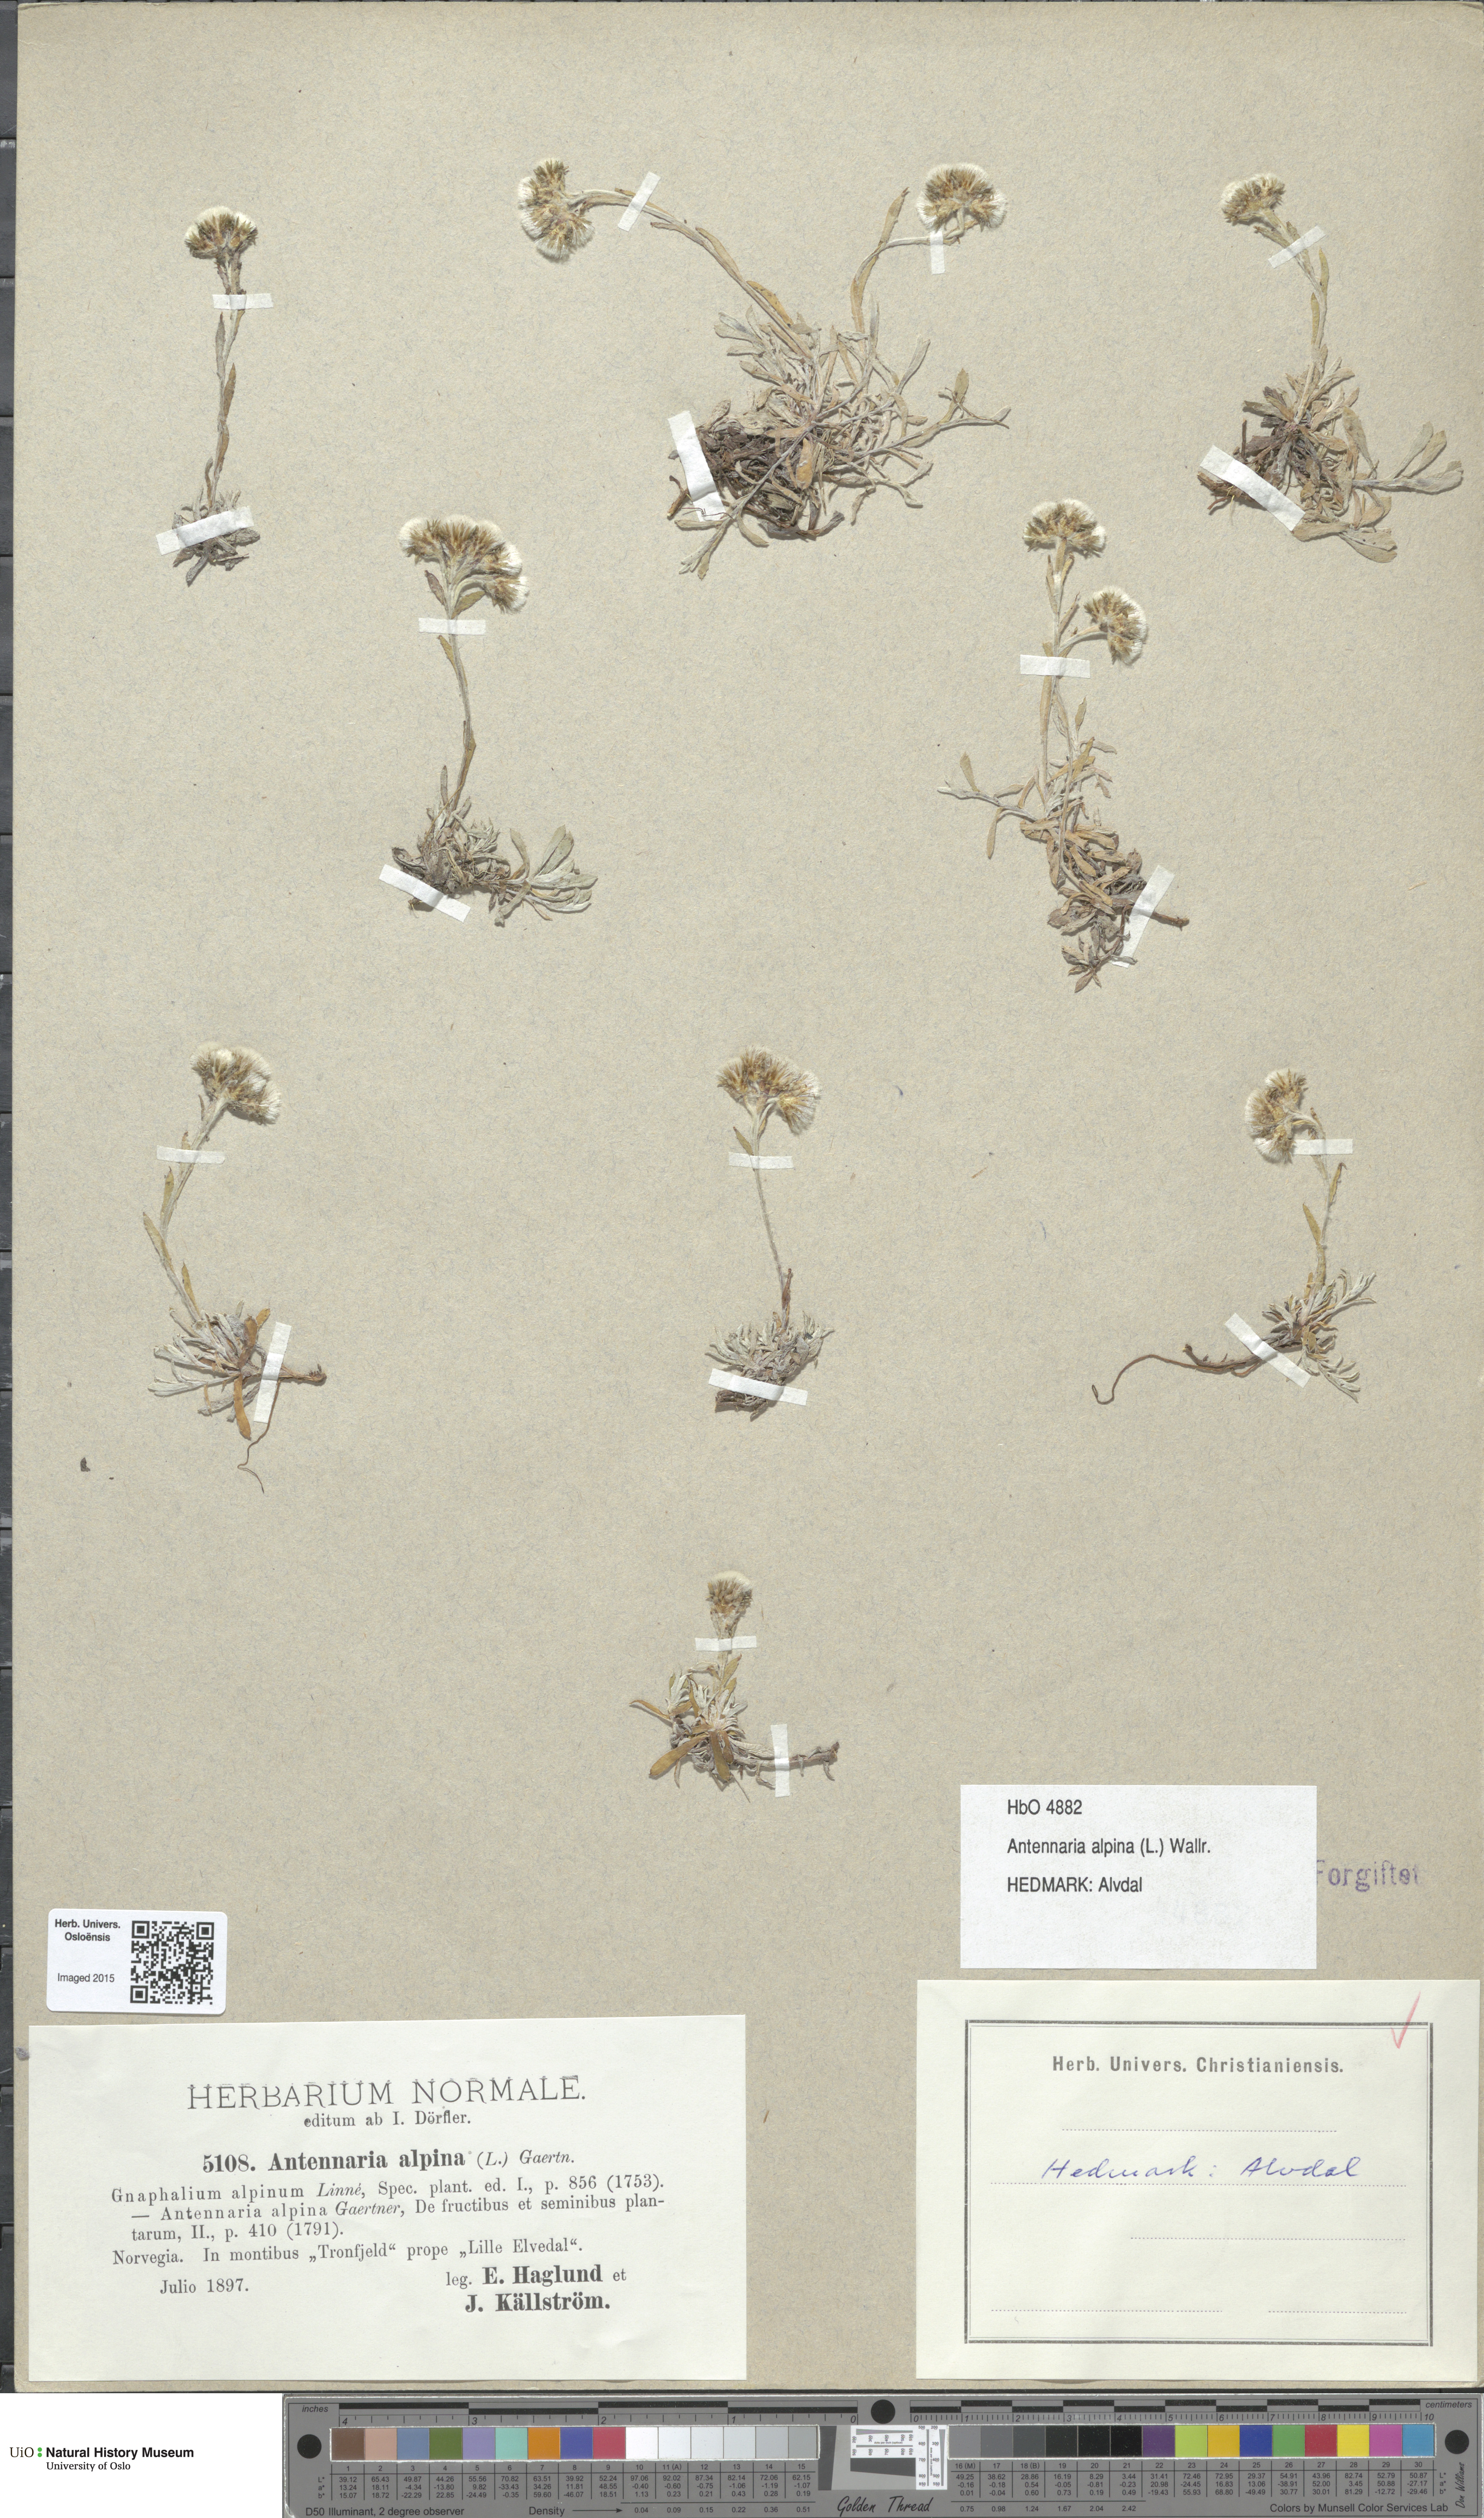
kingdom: Plantae
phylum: Tracheophyta
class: Magnoliopsida
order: Asterales
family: Asteraceae
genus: Antennaria
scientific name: Antennaria alpina
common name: Alpine pussytoes
